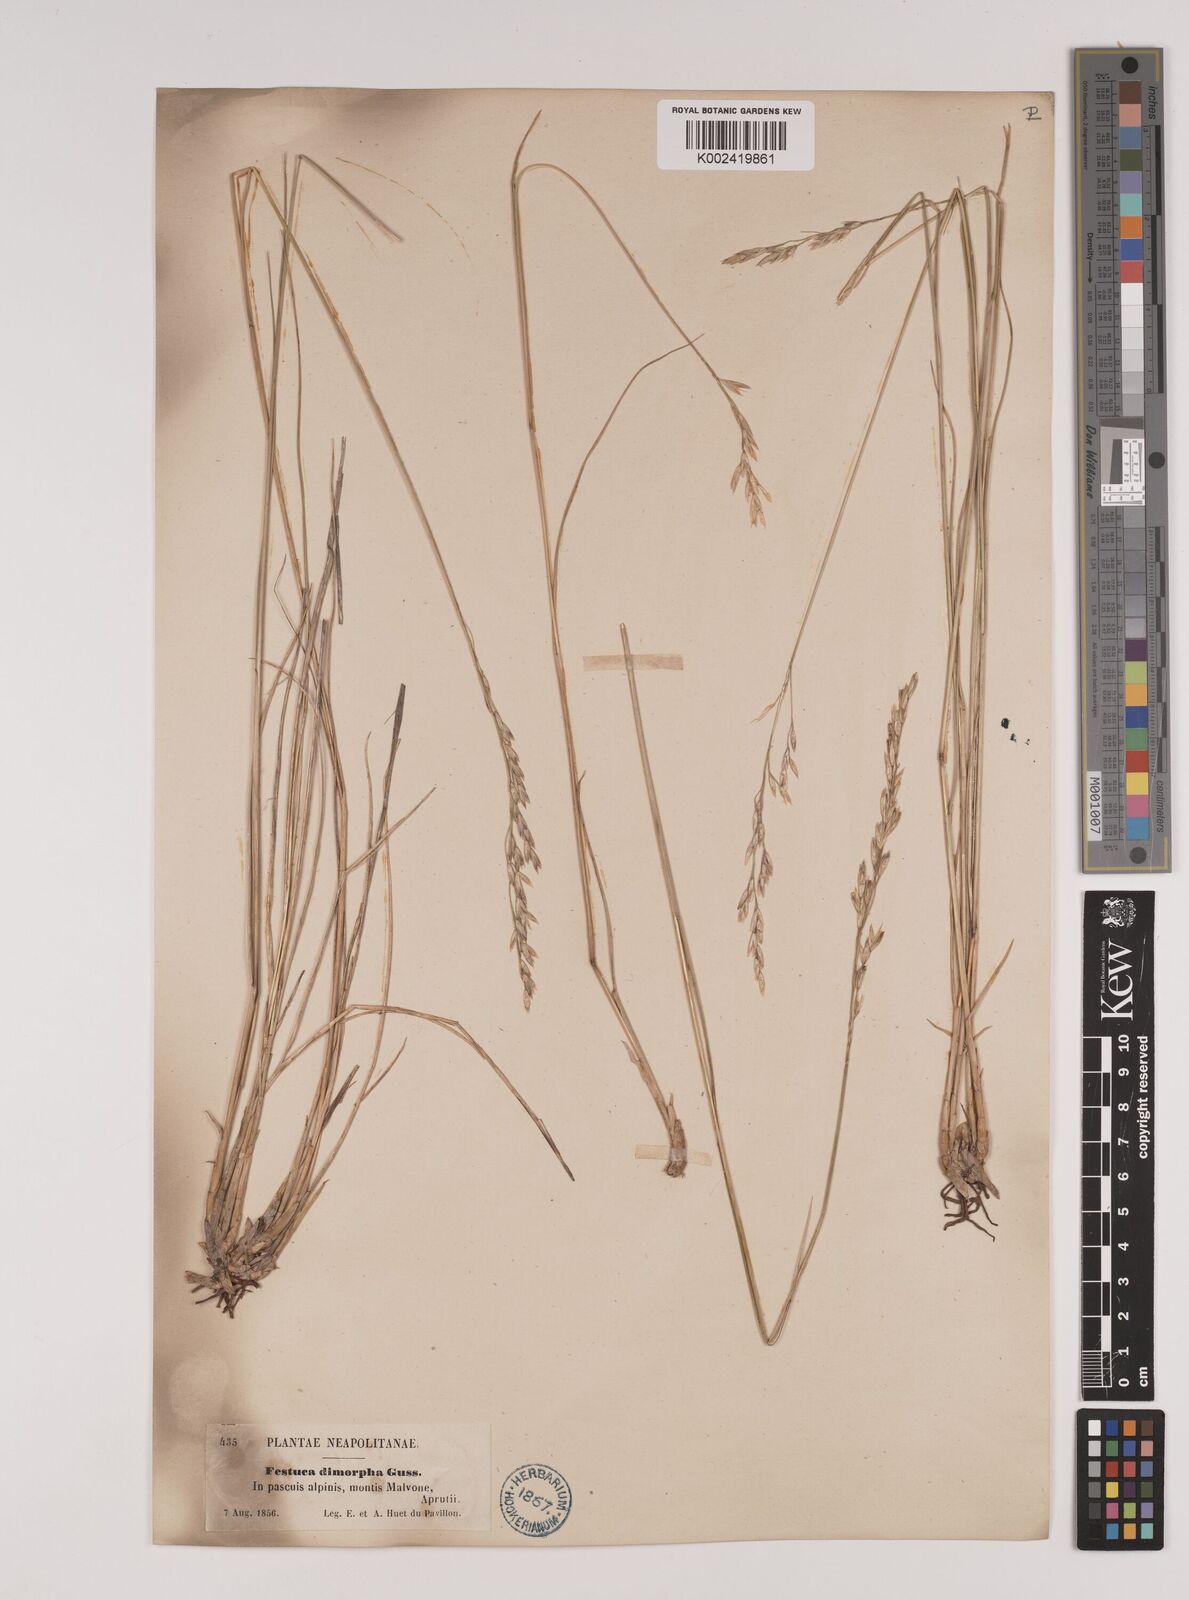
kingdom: Plantae
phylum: Tracheophyta
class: Liliopsida
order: Poales
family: Poaceae
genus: Festuca
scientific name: Festuca dimorpha
